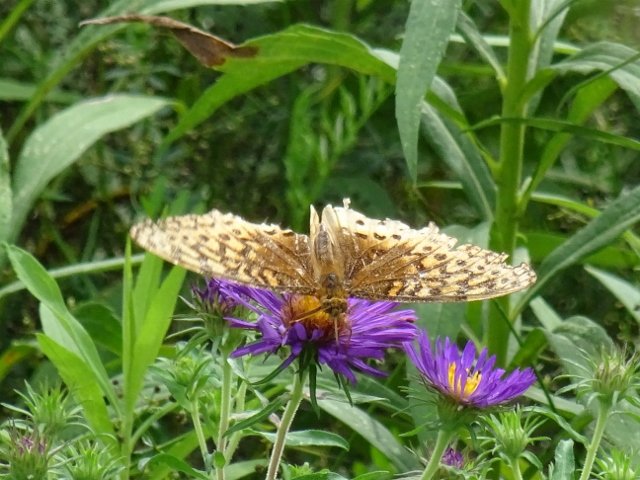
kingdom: Animalia
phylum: Arthropoda
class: Insecta
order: Lepidoptera
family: Nymphalidae
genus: Speyeria
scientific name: Speyeria
